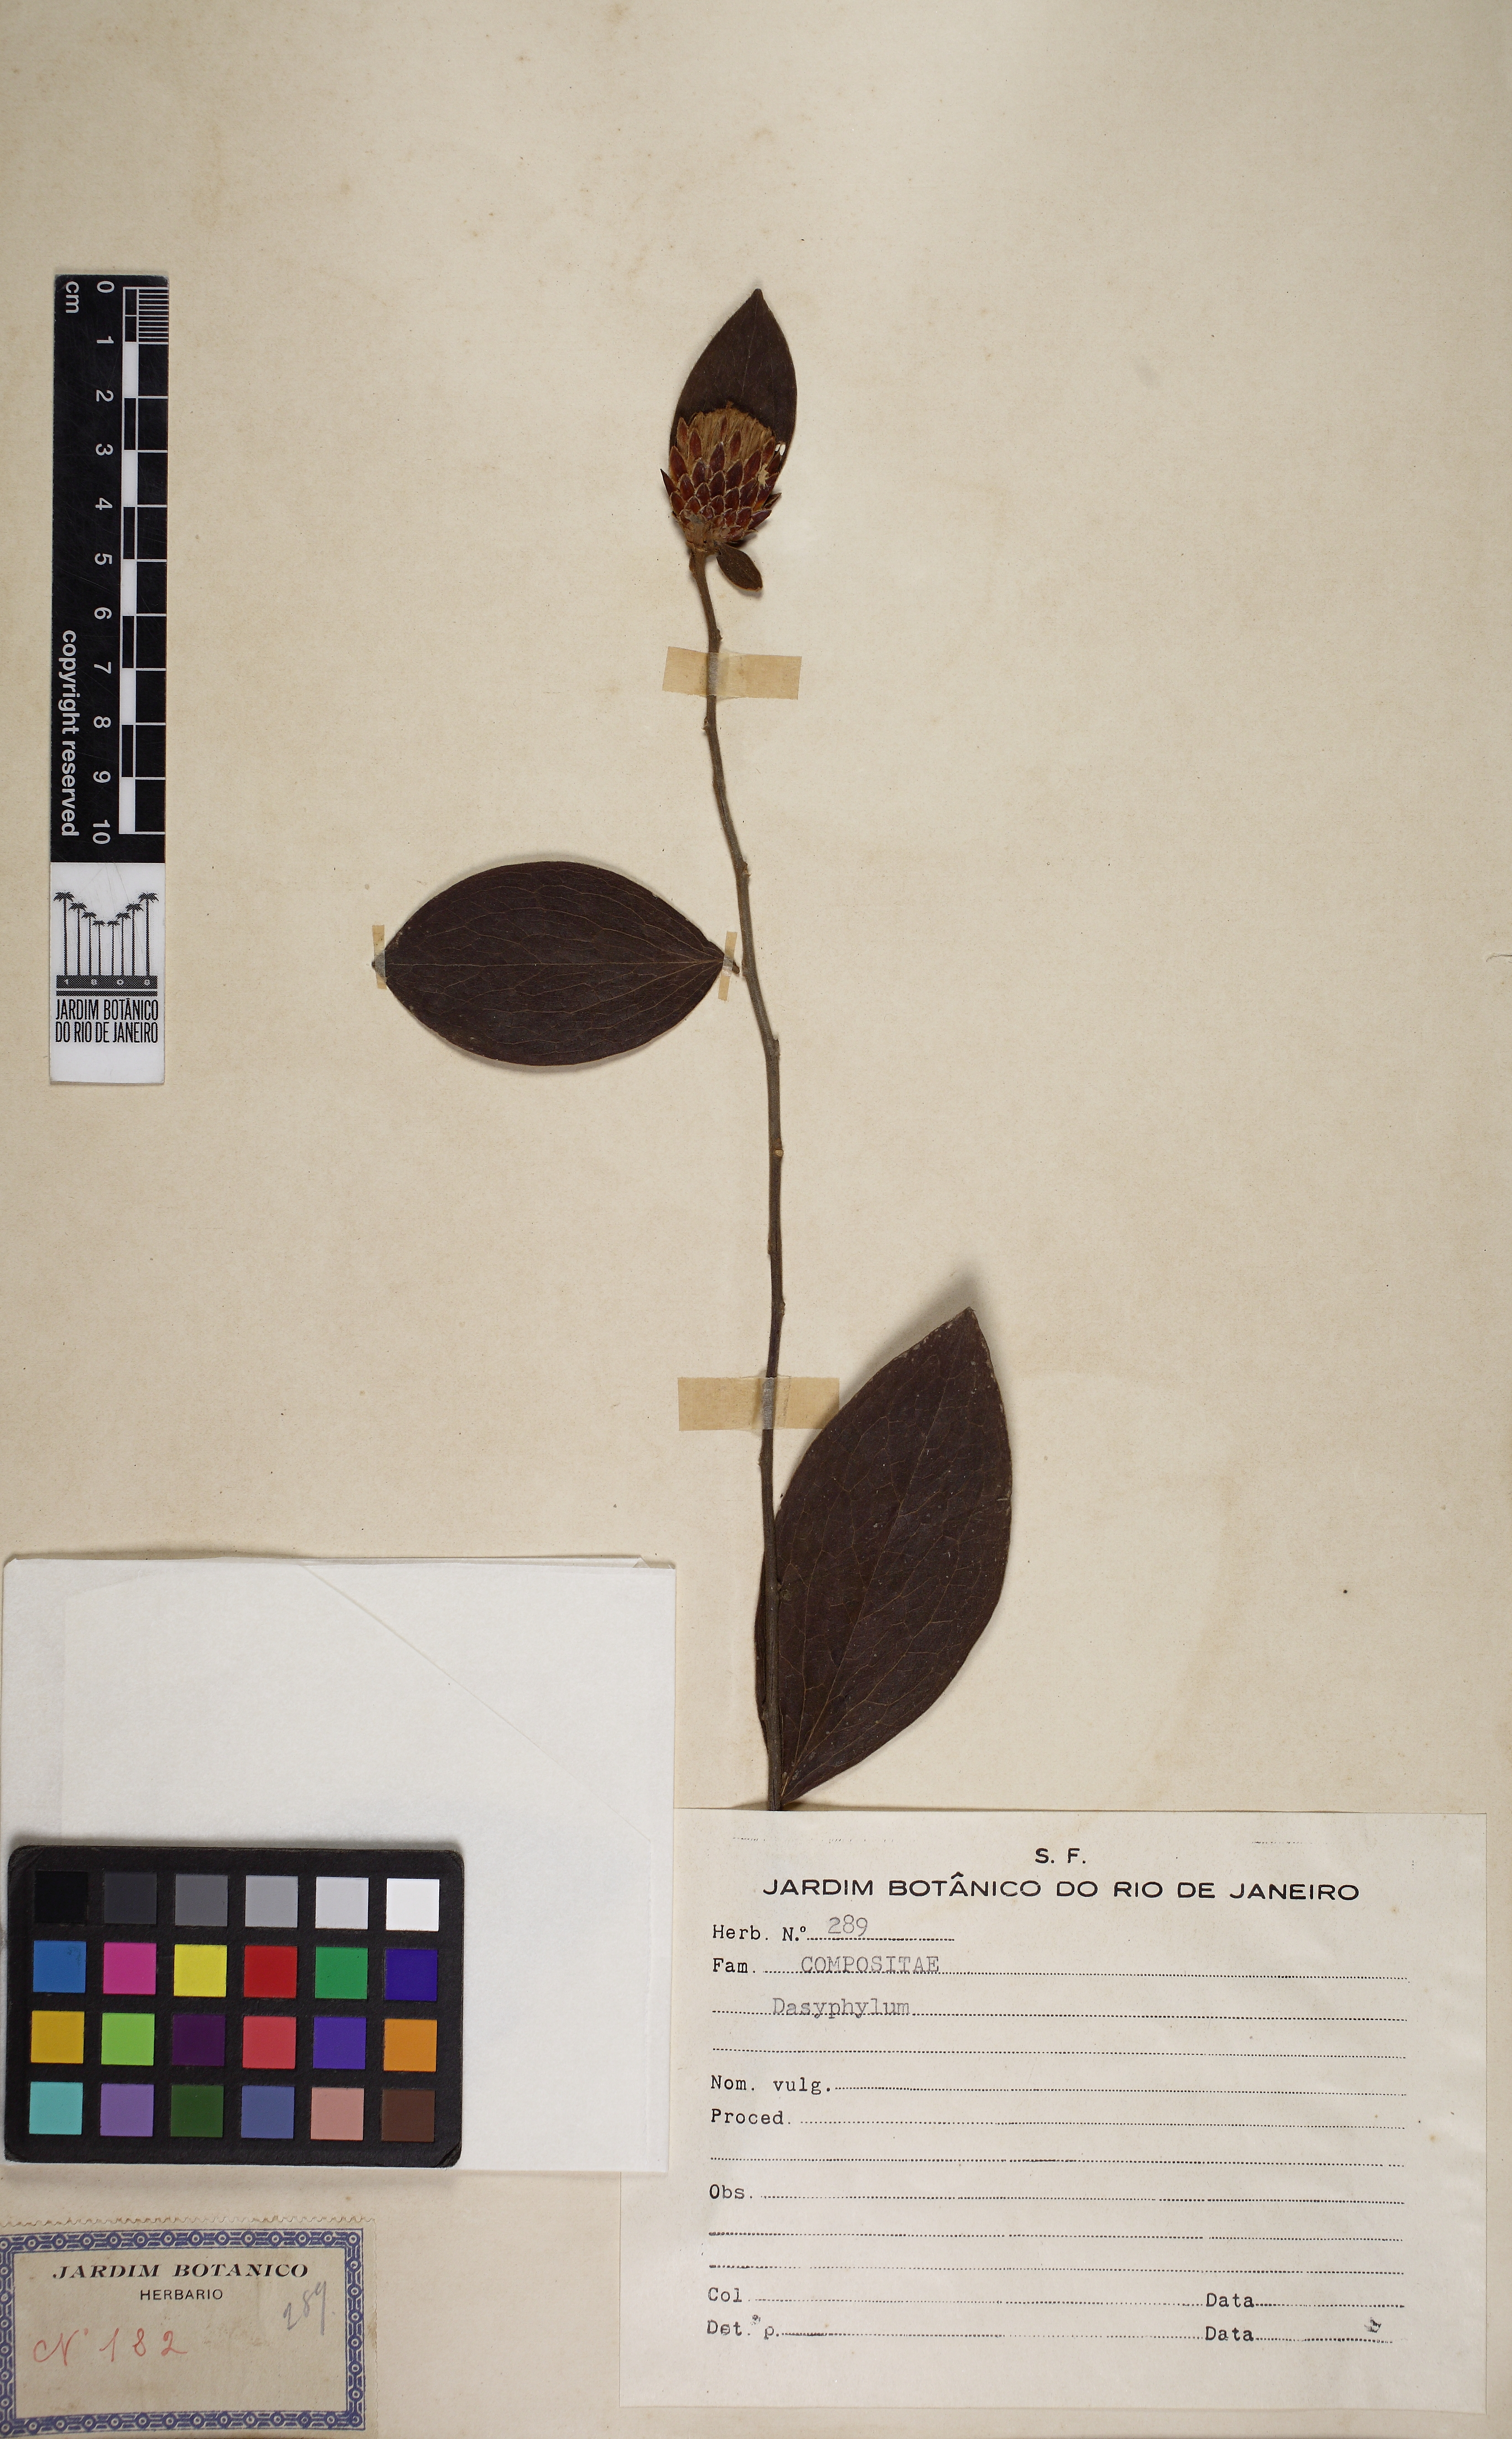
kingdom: Plantae
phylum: Tracheophyta
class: Magnoliopsida
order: Asterales
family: Asteraceae
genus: Dasyphyllum
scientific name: Dasyphyllum sprengelianum
